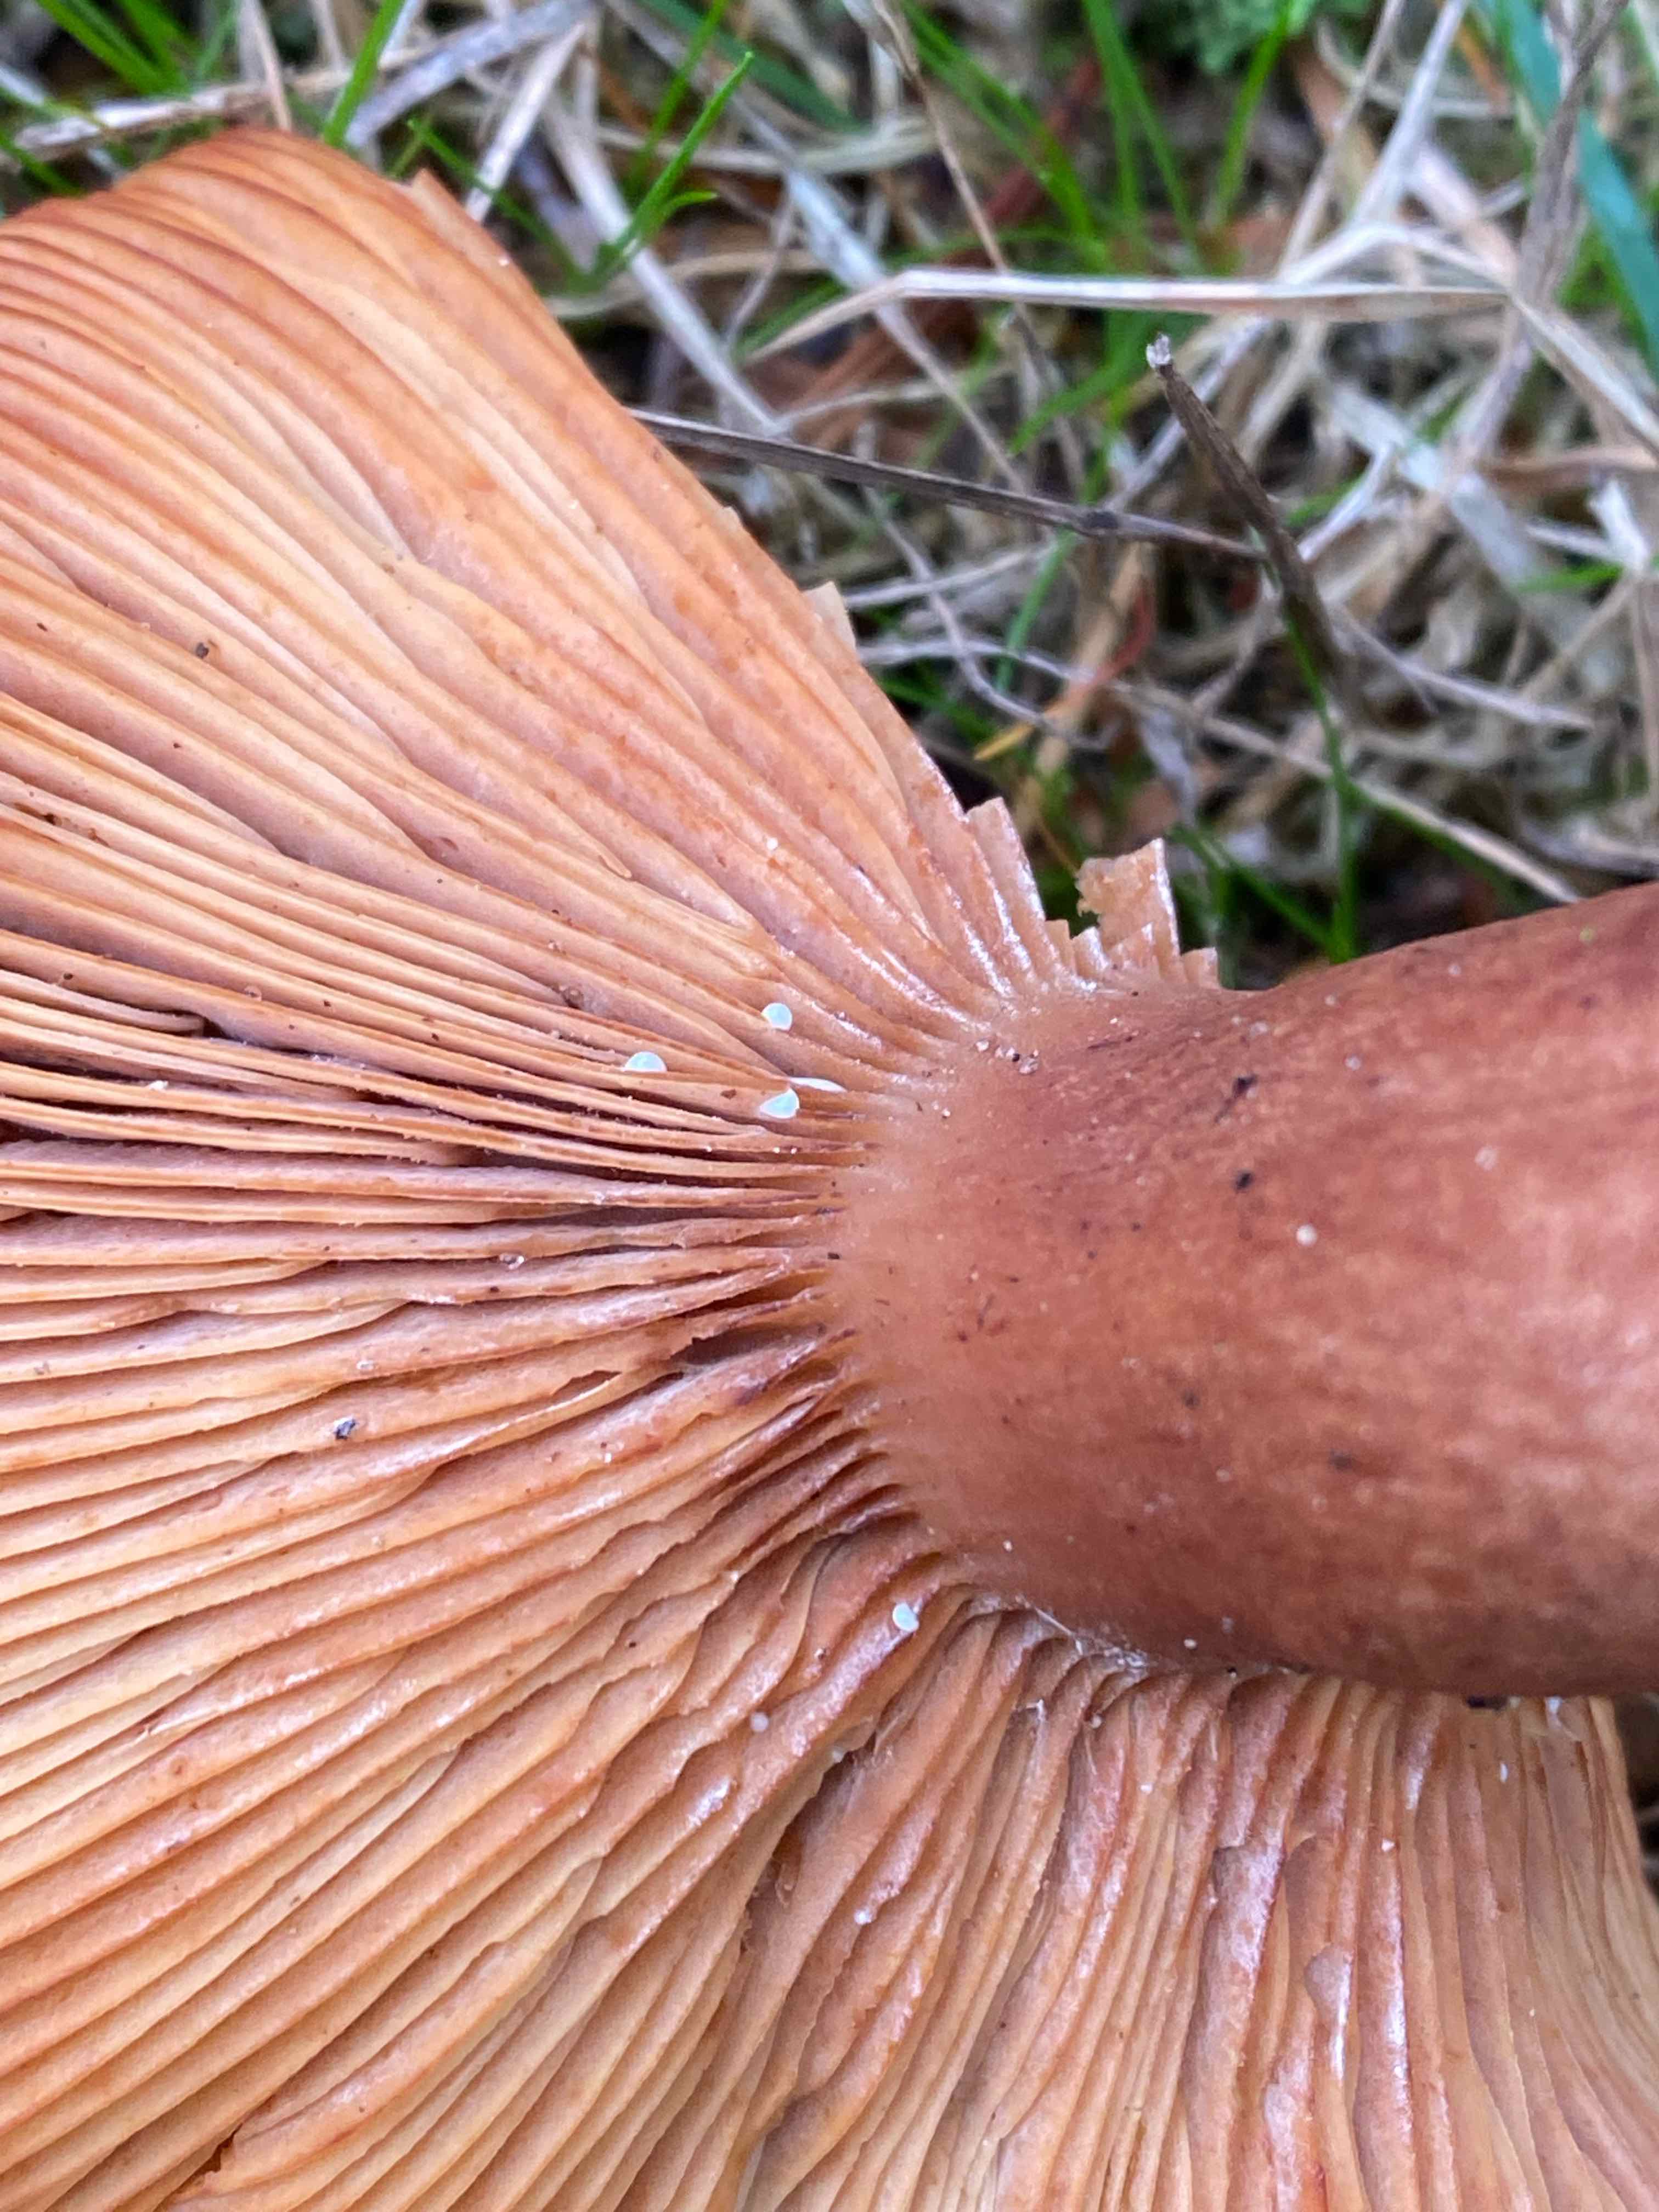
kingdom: Fungi
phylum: Basidiomycota
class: Agaricomycetes
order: Russulales
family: Russulaceae
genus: Lactarius
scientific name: Lactarius rufus
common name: rødbrun mælkehat
